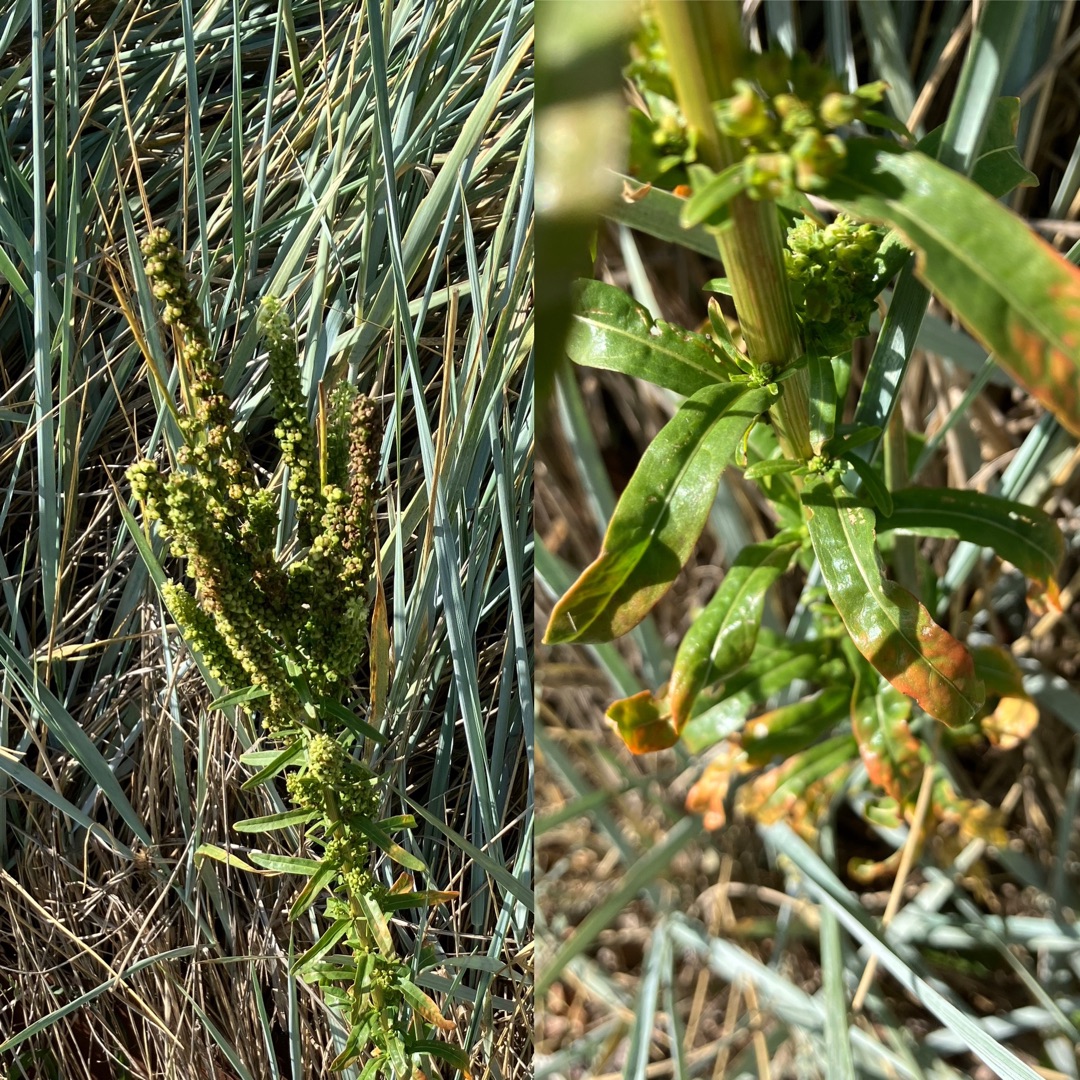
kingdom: Plantae
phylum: Tracheophyta
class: Magnoliopsida
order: Brassicales
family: Resedaceae
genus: Reseda
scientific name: Reseda luteola
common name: Farve-reseda
